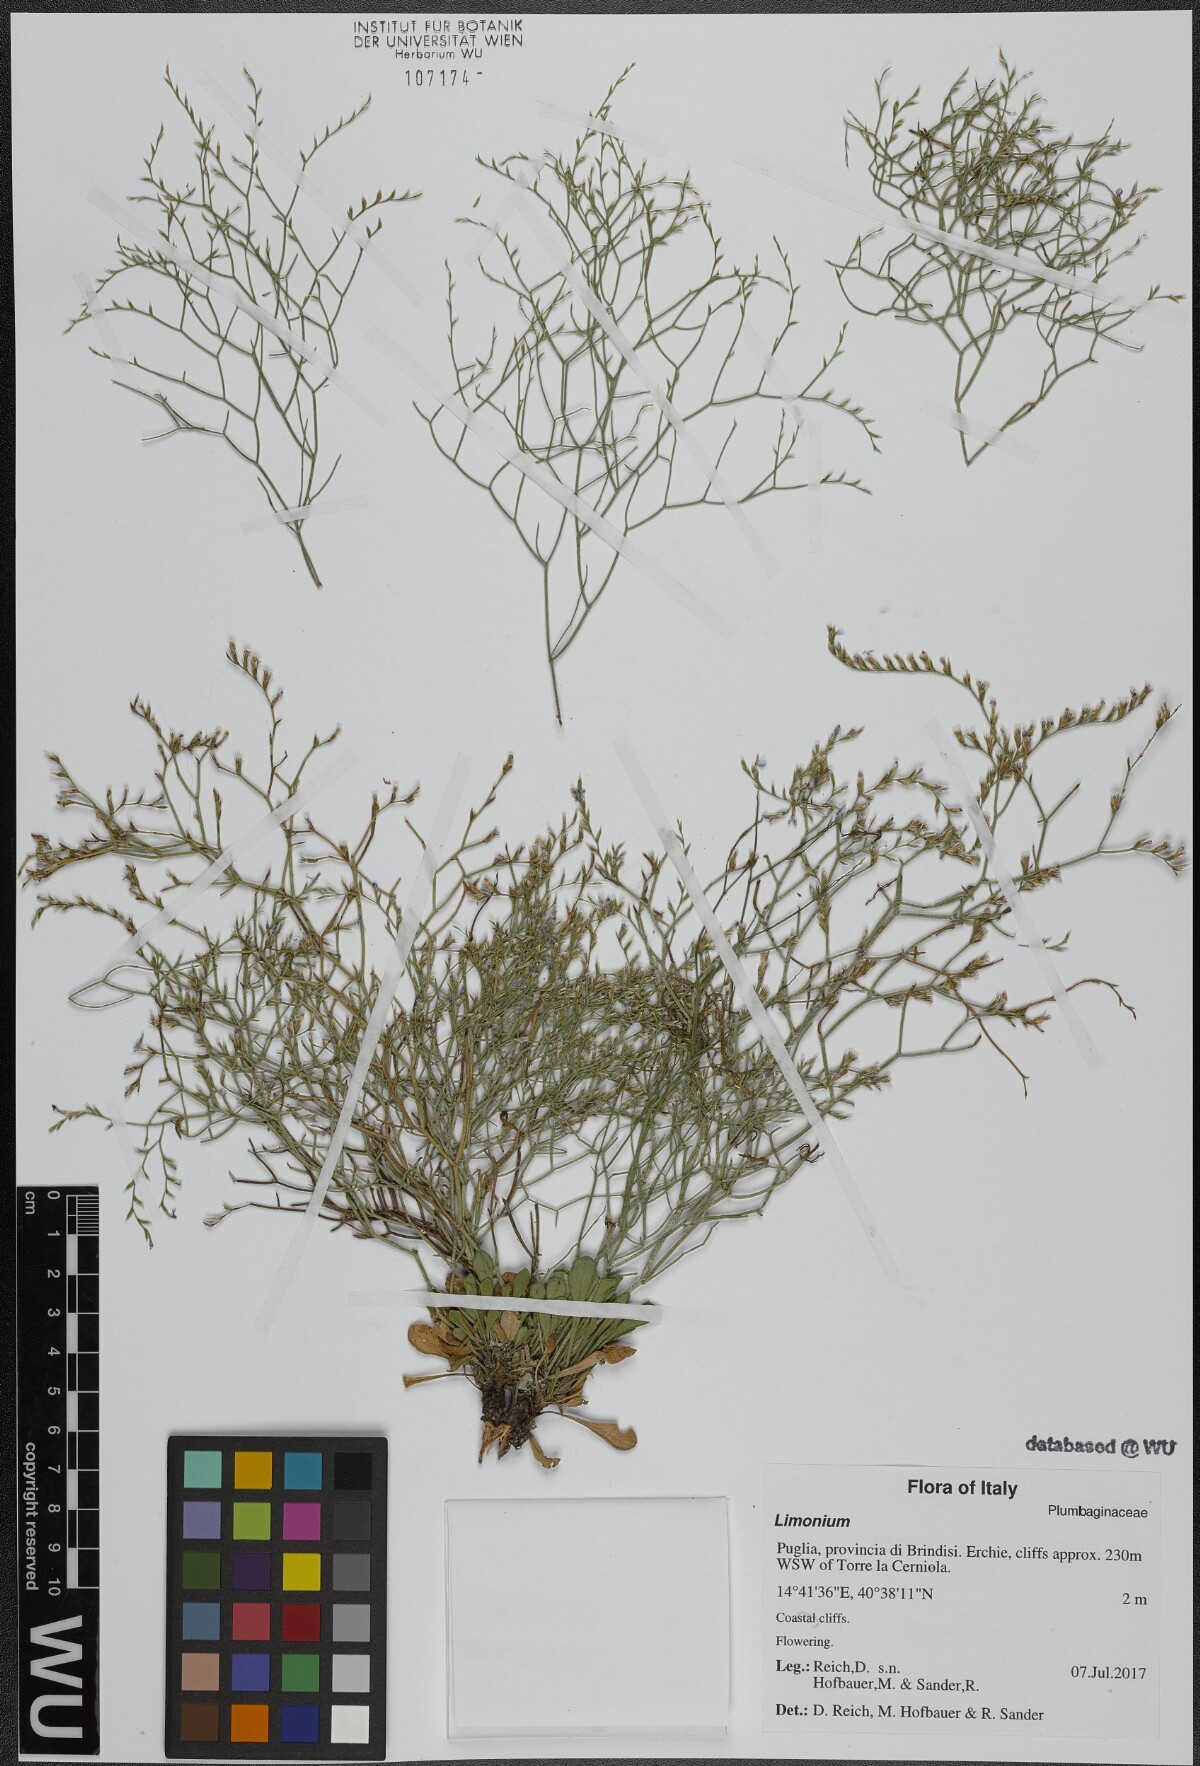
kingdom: Plantae
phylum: Tracheophyta
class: Magnoliopsida
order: Caryophyllales
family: Plumbaginaceae
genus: Limonium
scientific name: Limonium
